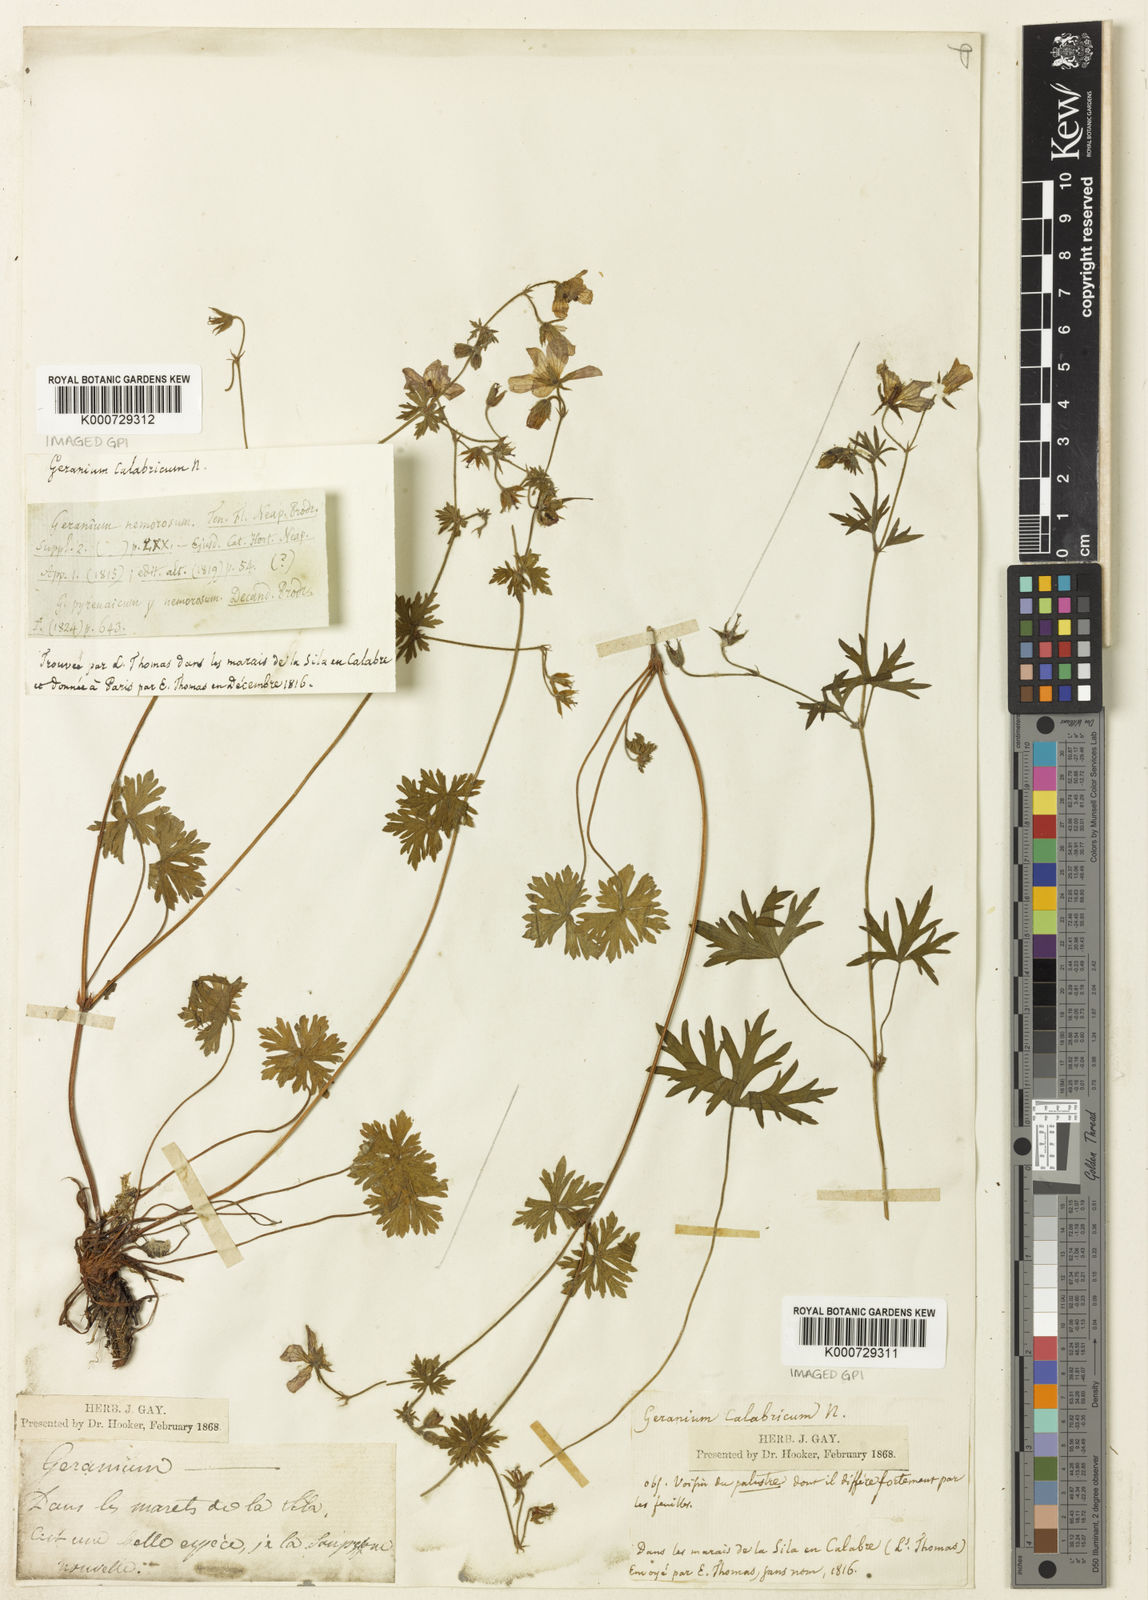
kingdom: Plantae
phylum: Tracheophyta
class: Magnoliopsida
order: Geraniales
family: Geraniaceae
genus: Geranium
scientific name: Geranium asphodeloides
